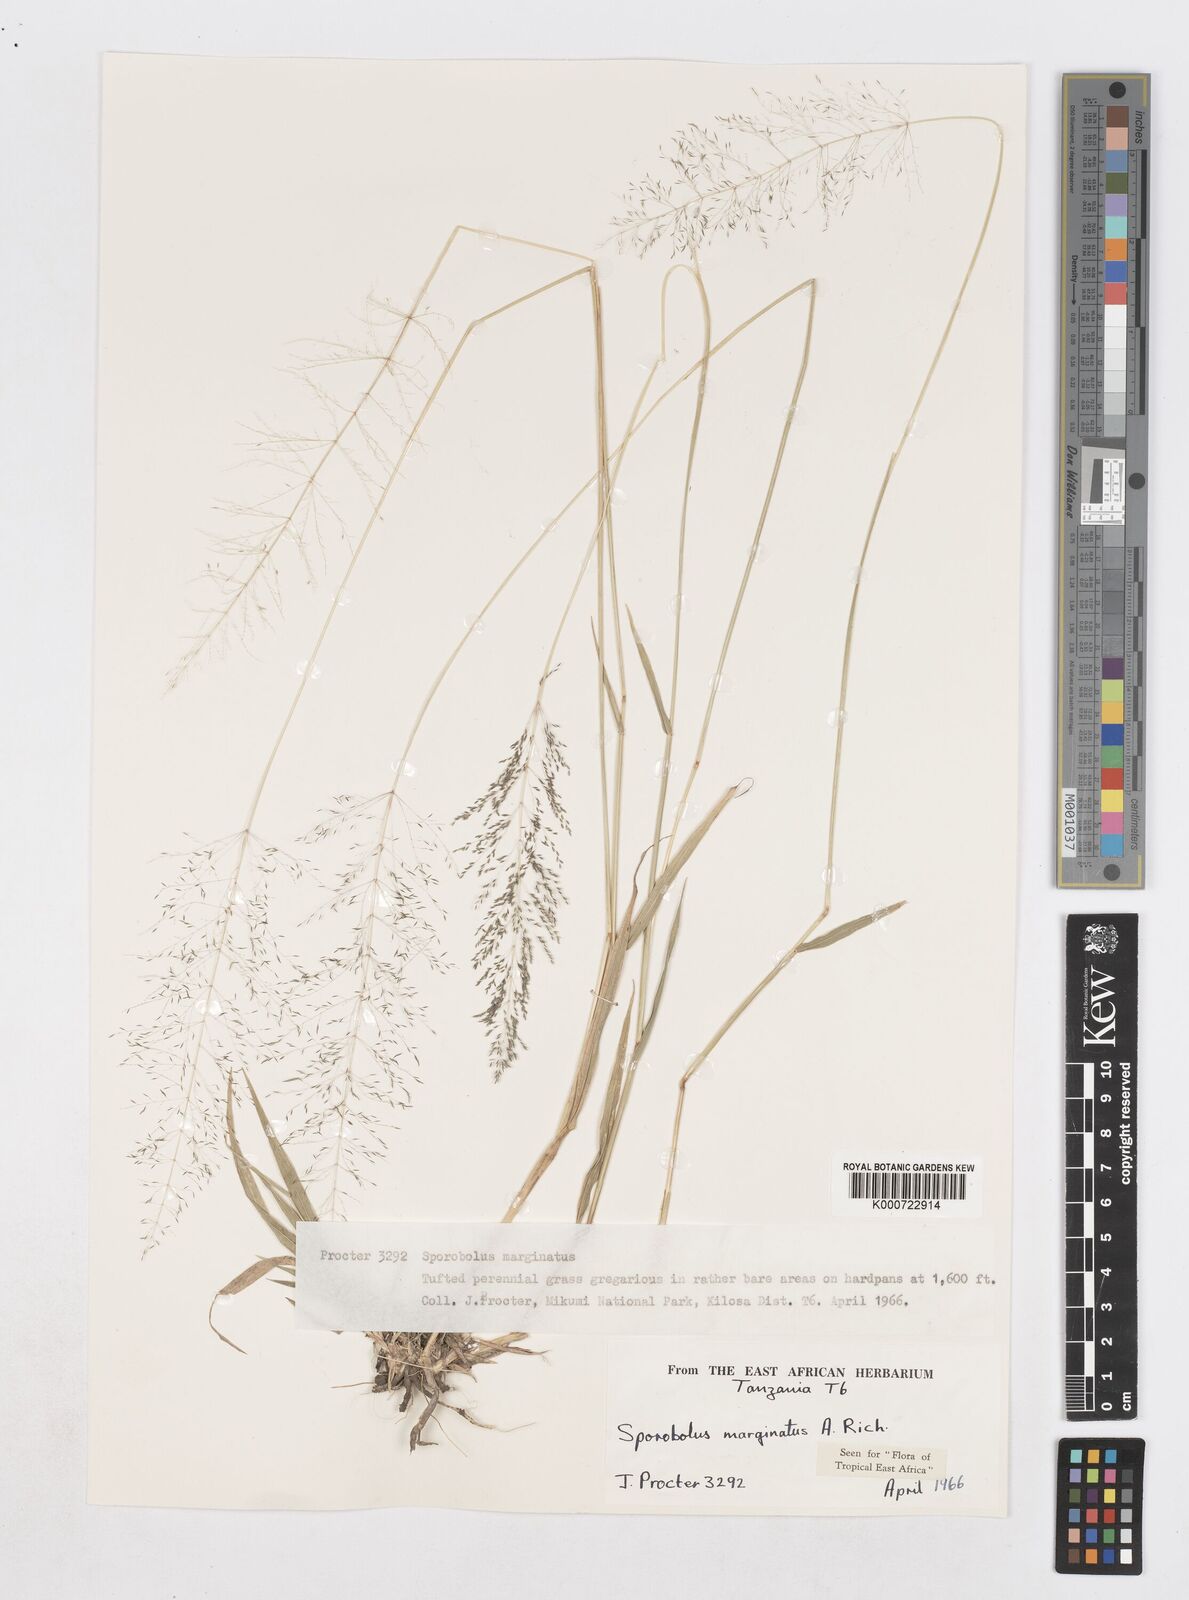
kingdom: Plantae
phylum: Tracheophyta
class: Liliopsida
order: Poales
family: Poaceae
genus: Sporobolus
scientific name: Sporobolus ioclados
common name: Pan dropseed
